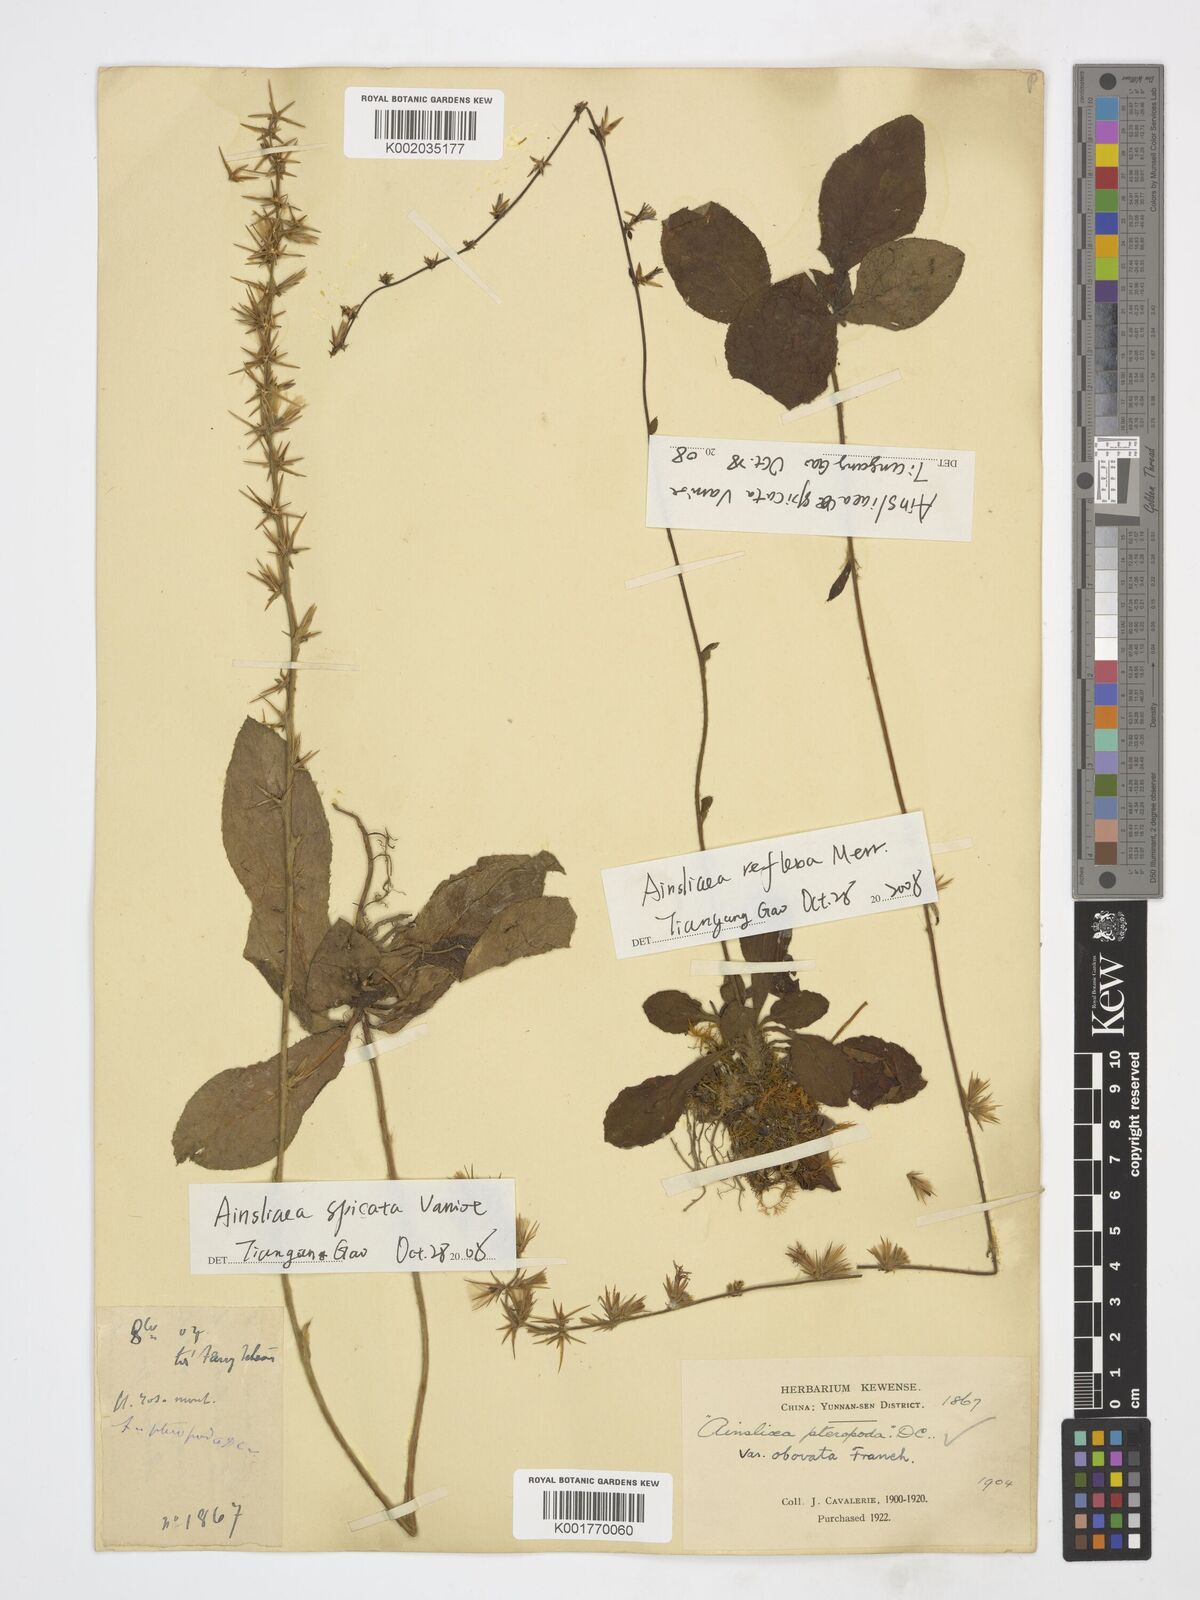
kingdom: Plantae
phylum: Tracheophyta
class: Magnoliopsida
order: Asterales
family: Asteraceae
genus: Ainsliaea
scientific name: Ainsliaea spicata
